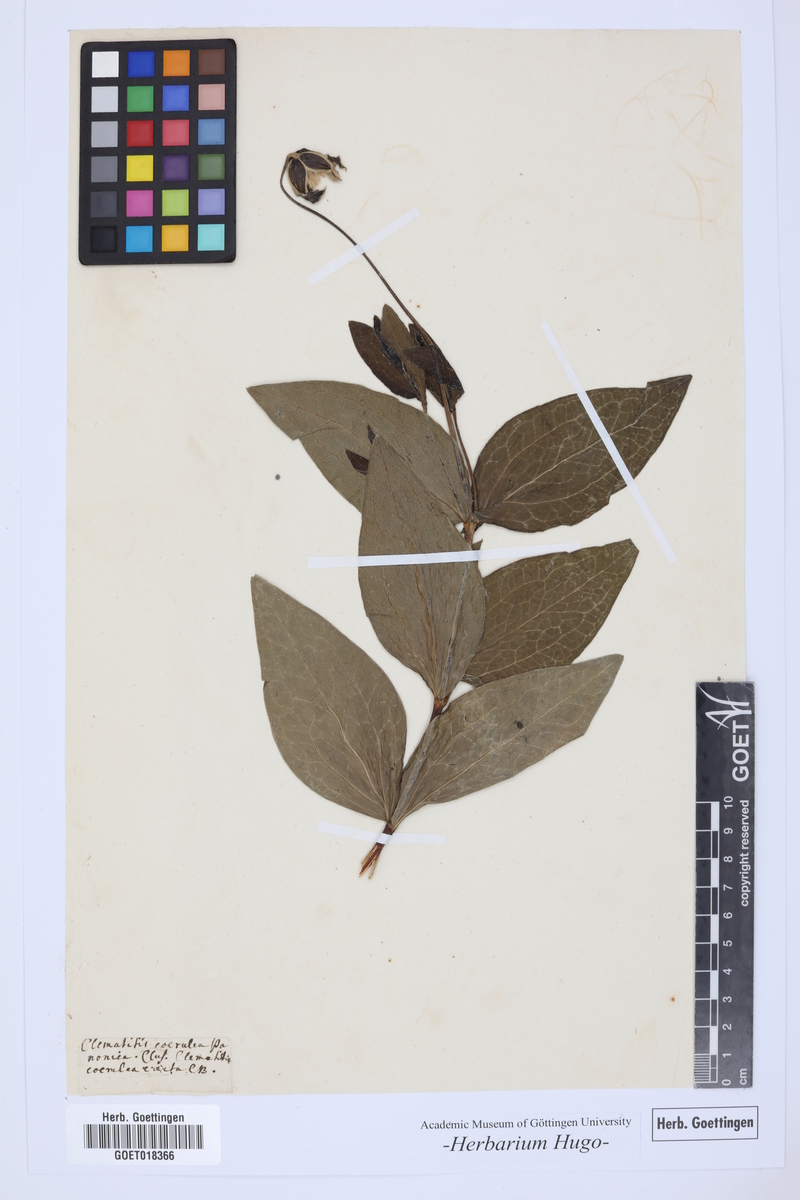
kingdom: Plantae
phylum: Tracheophyta
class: Magnoliopsida
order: Ranunculales
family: Ranunculaceae
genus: Clematis
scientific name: Clematis integrifolia
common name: Solitary clematis
